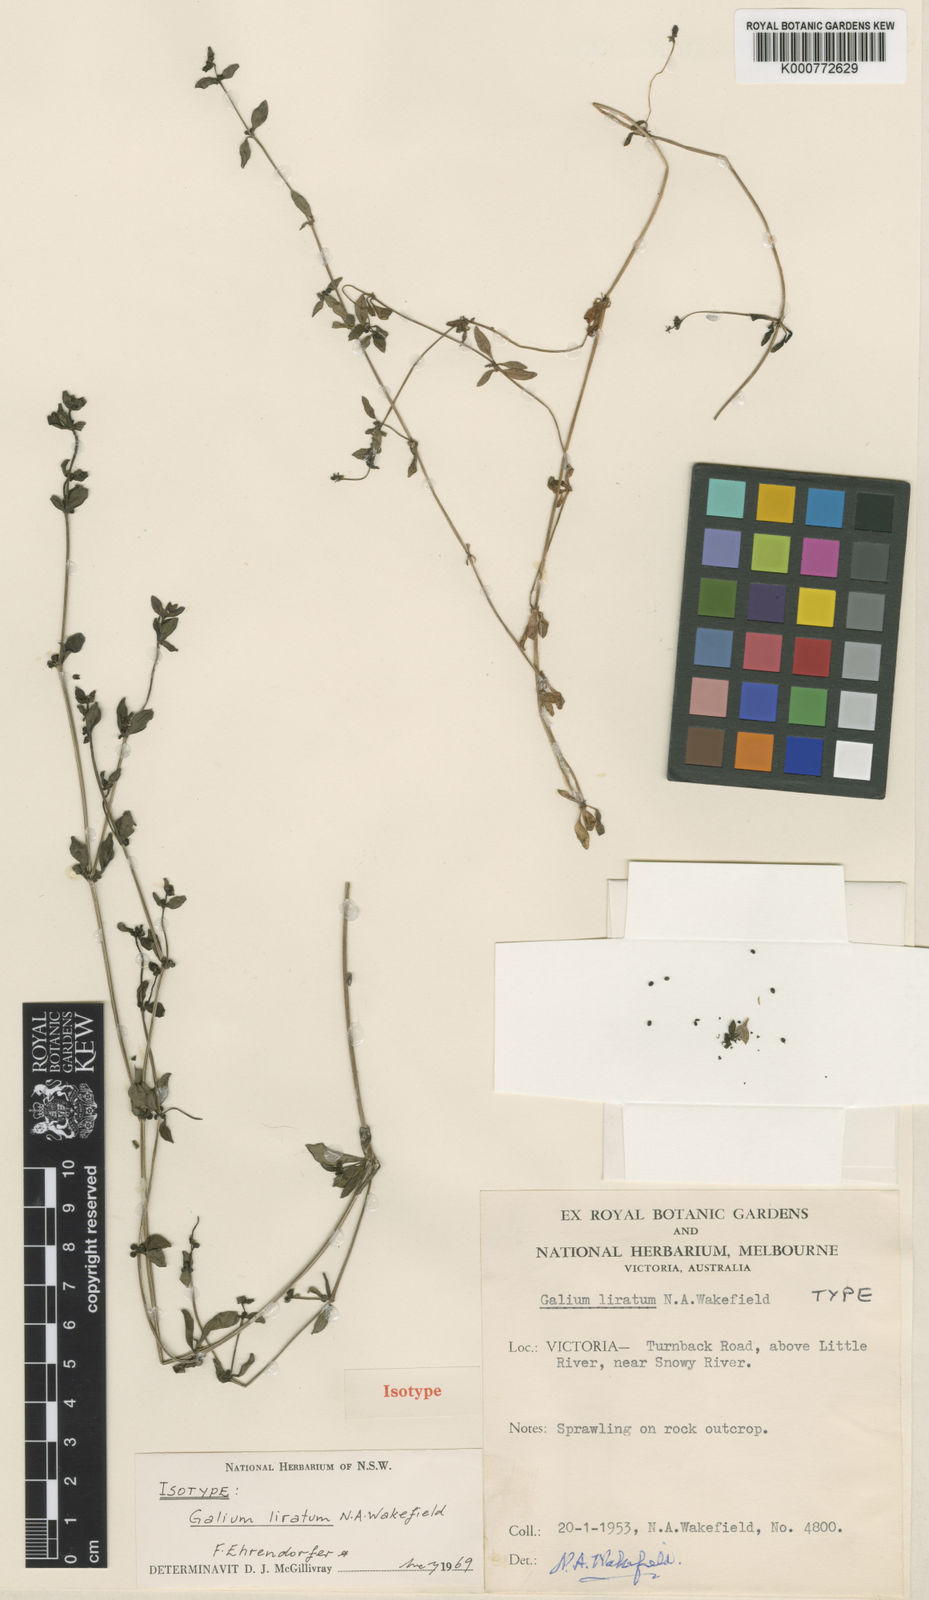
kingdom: Plantae
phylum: Tracheophyta
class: Magnoliopsida
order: Gentianales
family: Rubiaceae
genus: Galium
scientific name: Galium liratum
